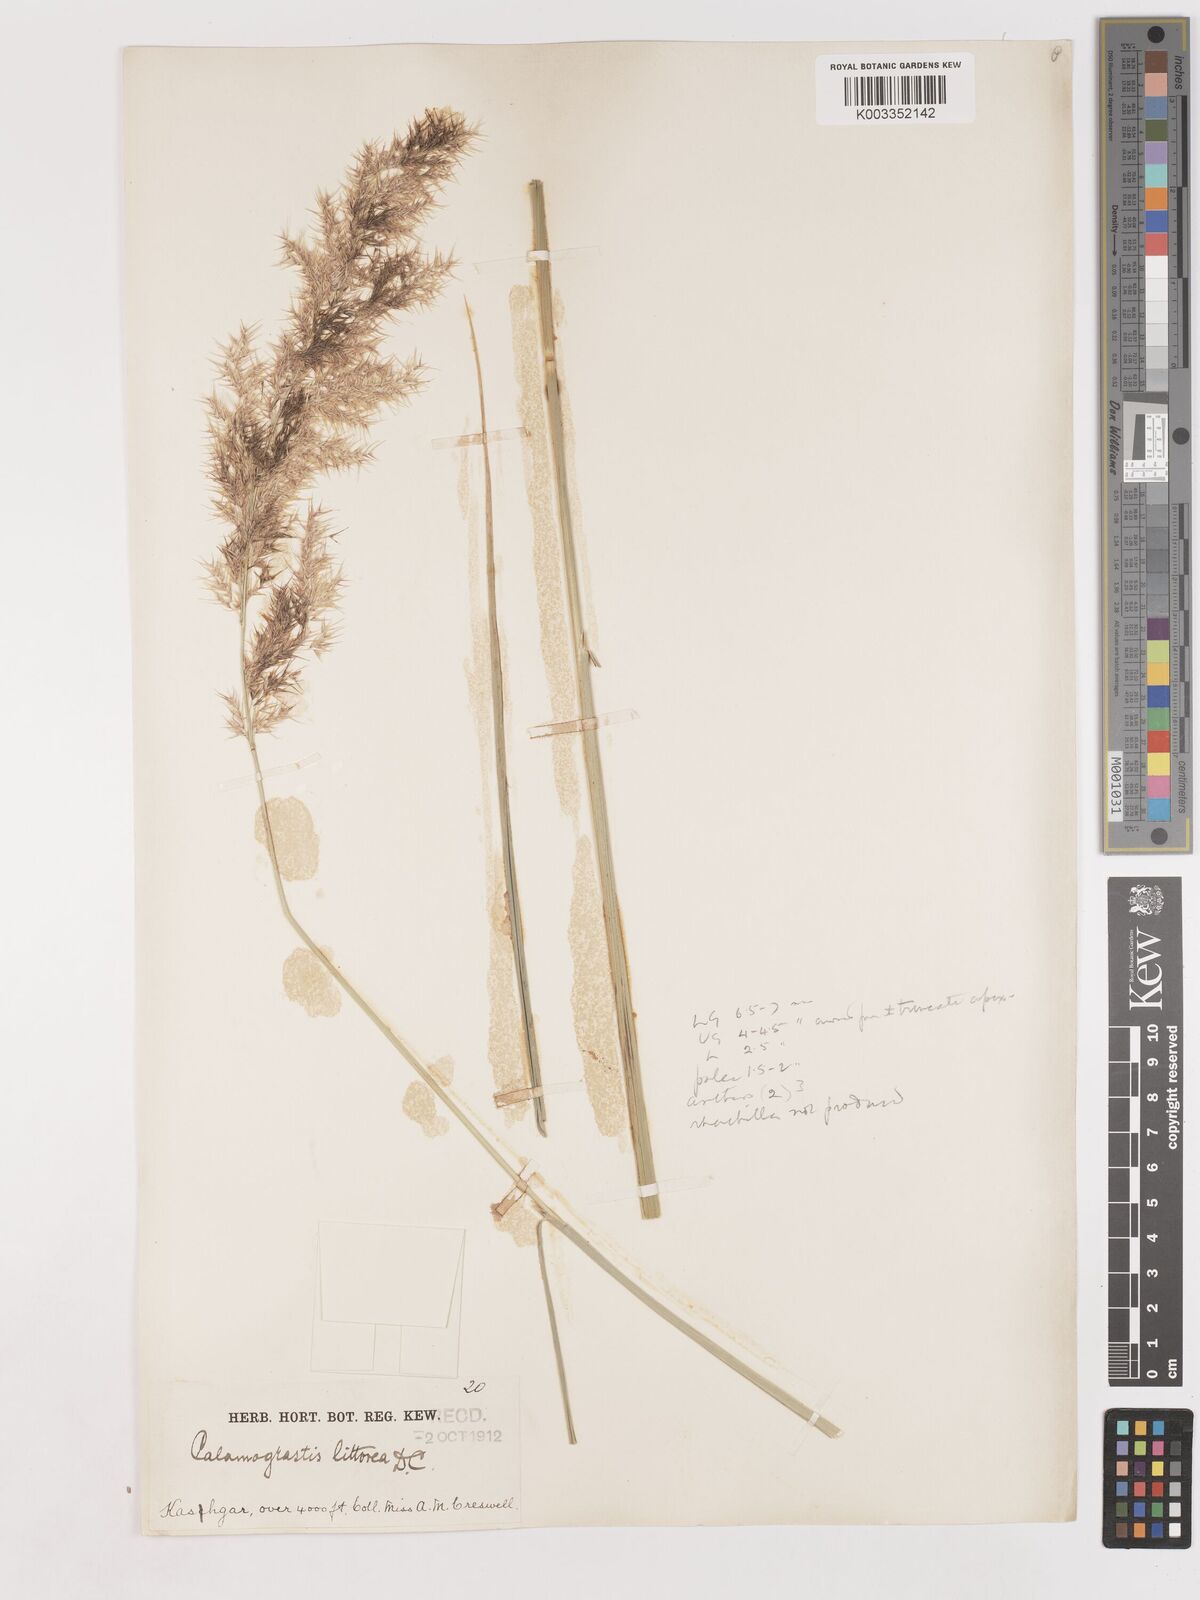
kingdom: Plantae
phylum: Tracheophyta
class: Liliopsida
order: Poales
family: Poaceae
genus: Calamagrostis
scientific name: Calamagrostis pseudophragmites
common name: Coastal small-reed
